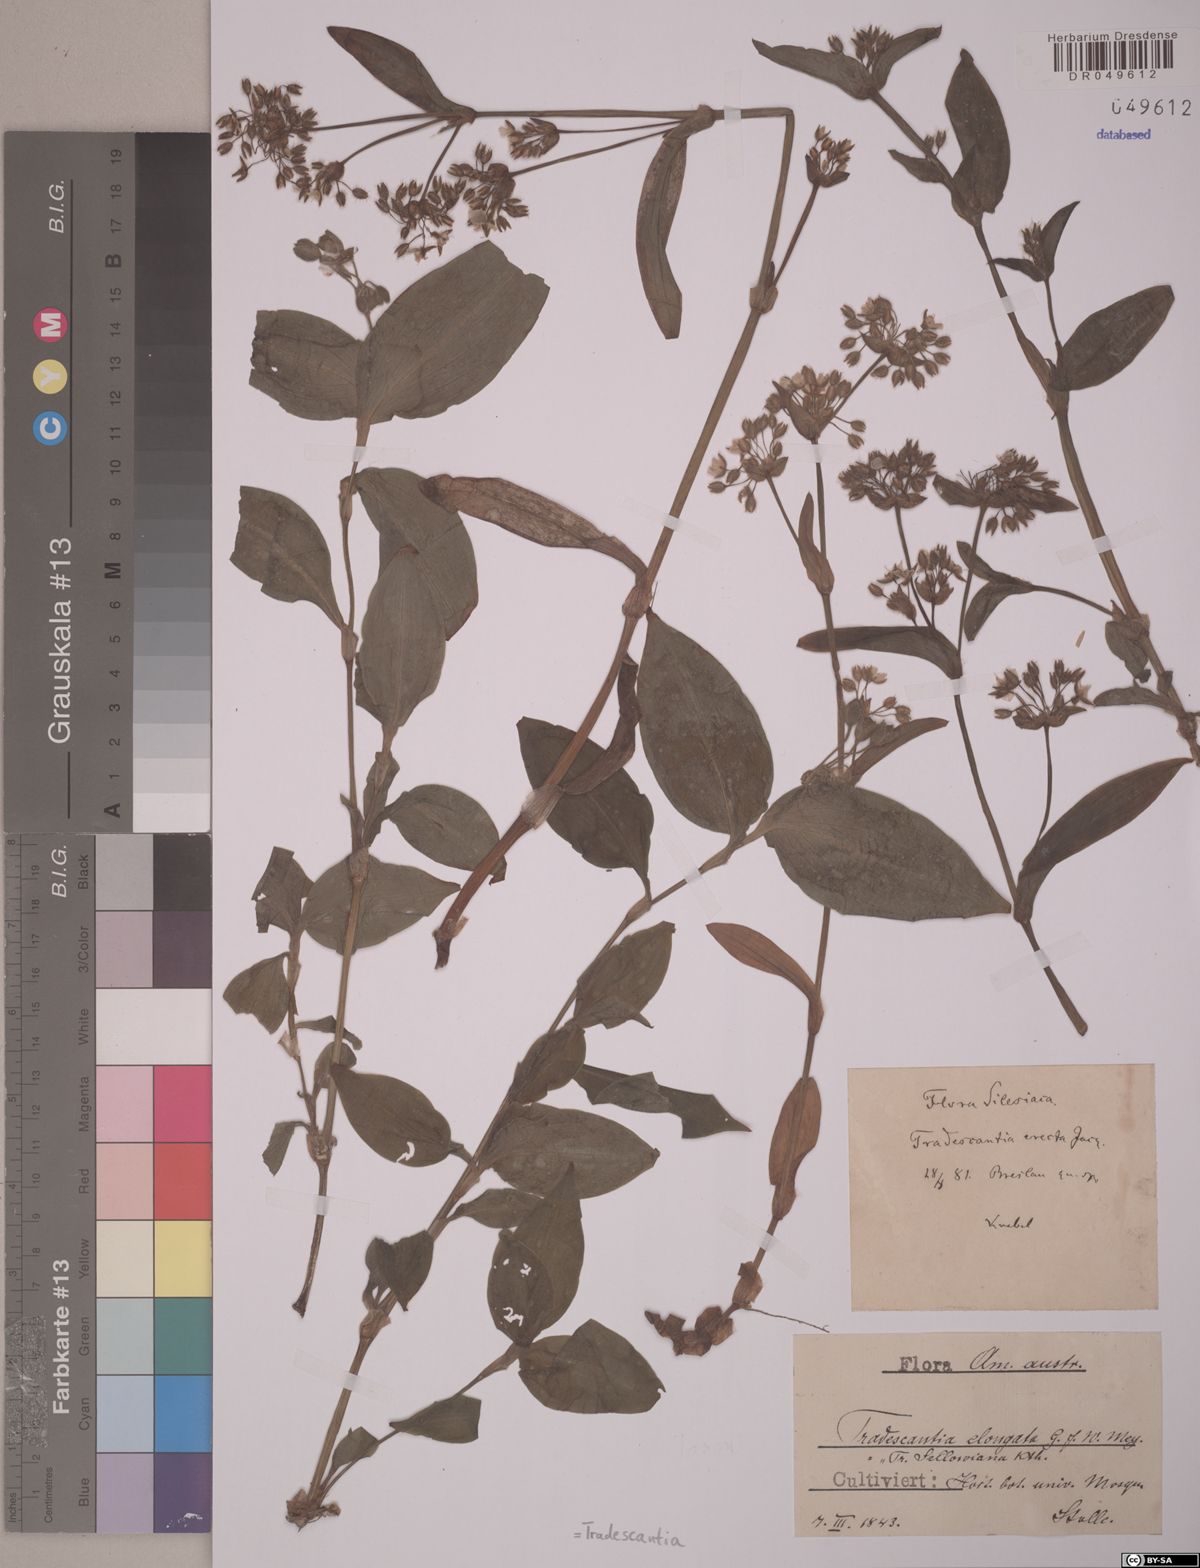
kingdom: Plantae
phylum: Tracheophyta
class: Liliopsida
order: Commelinales
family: Commelinaceae
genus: Tradescantia
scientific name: Tradescantia
